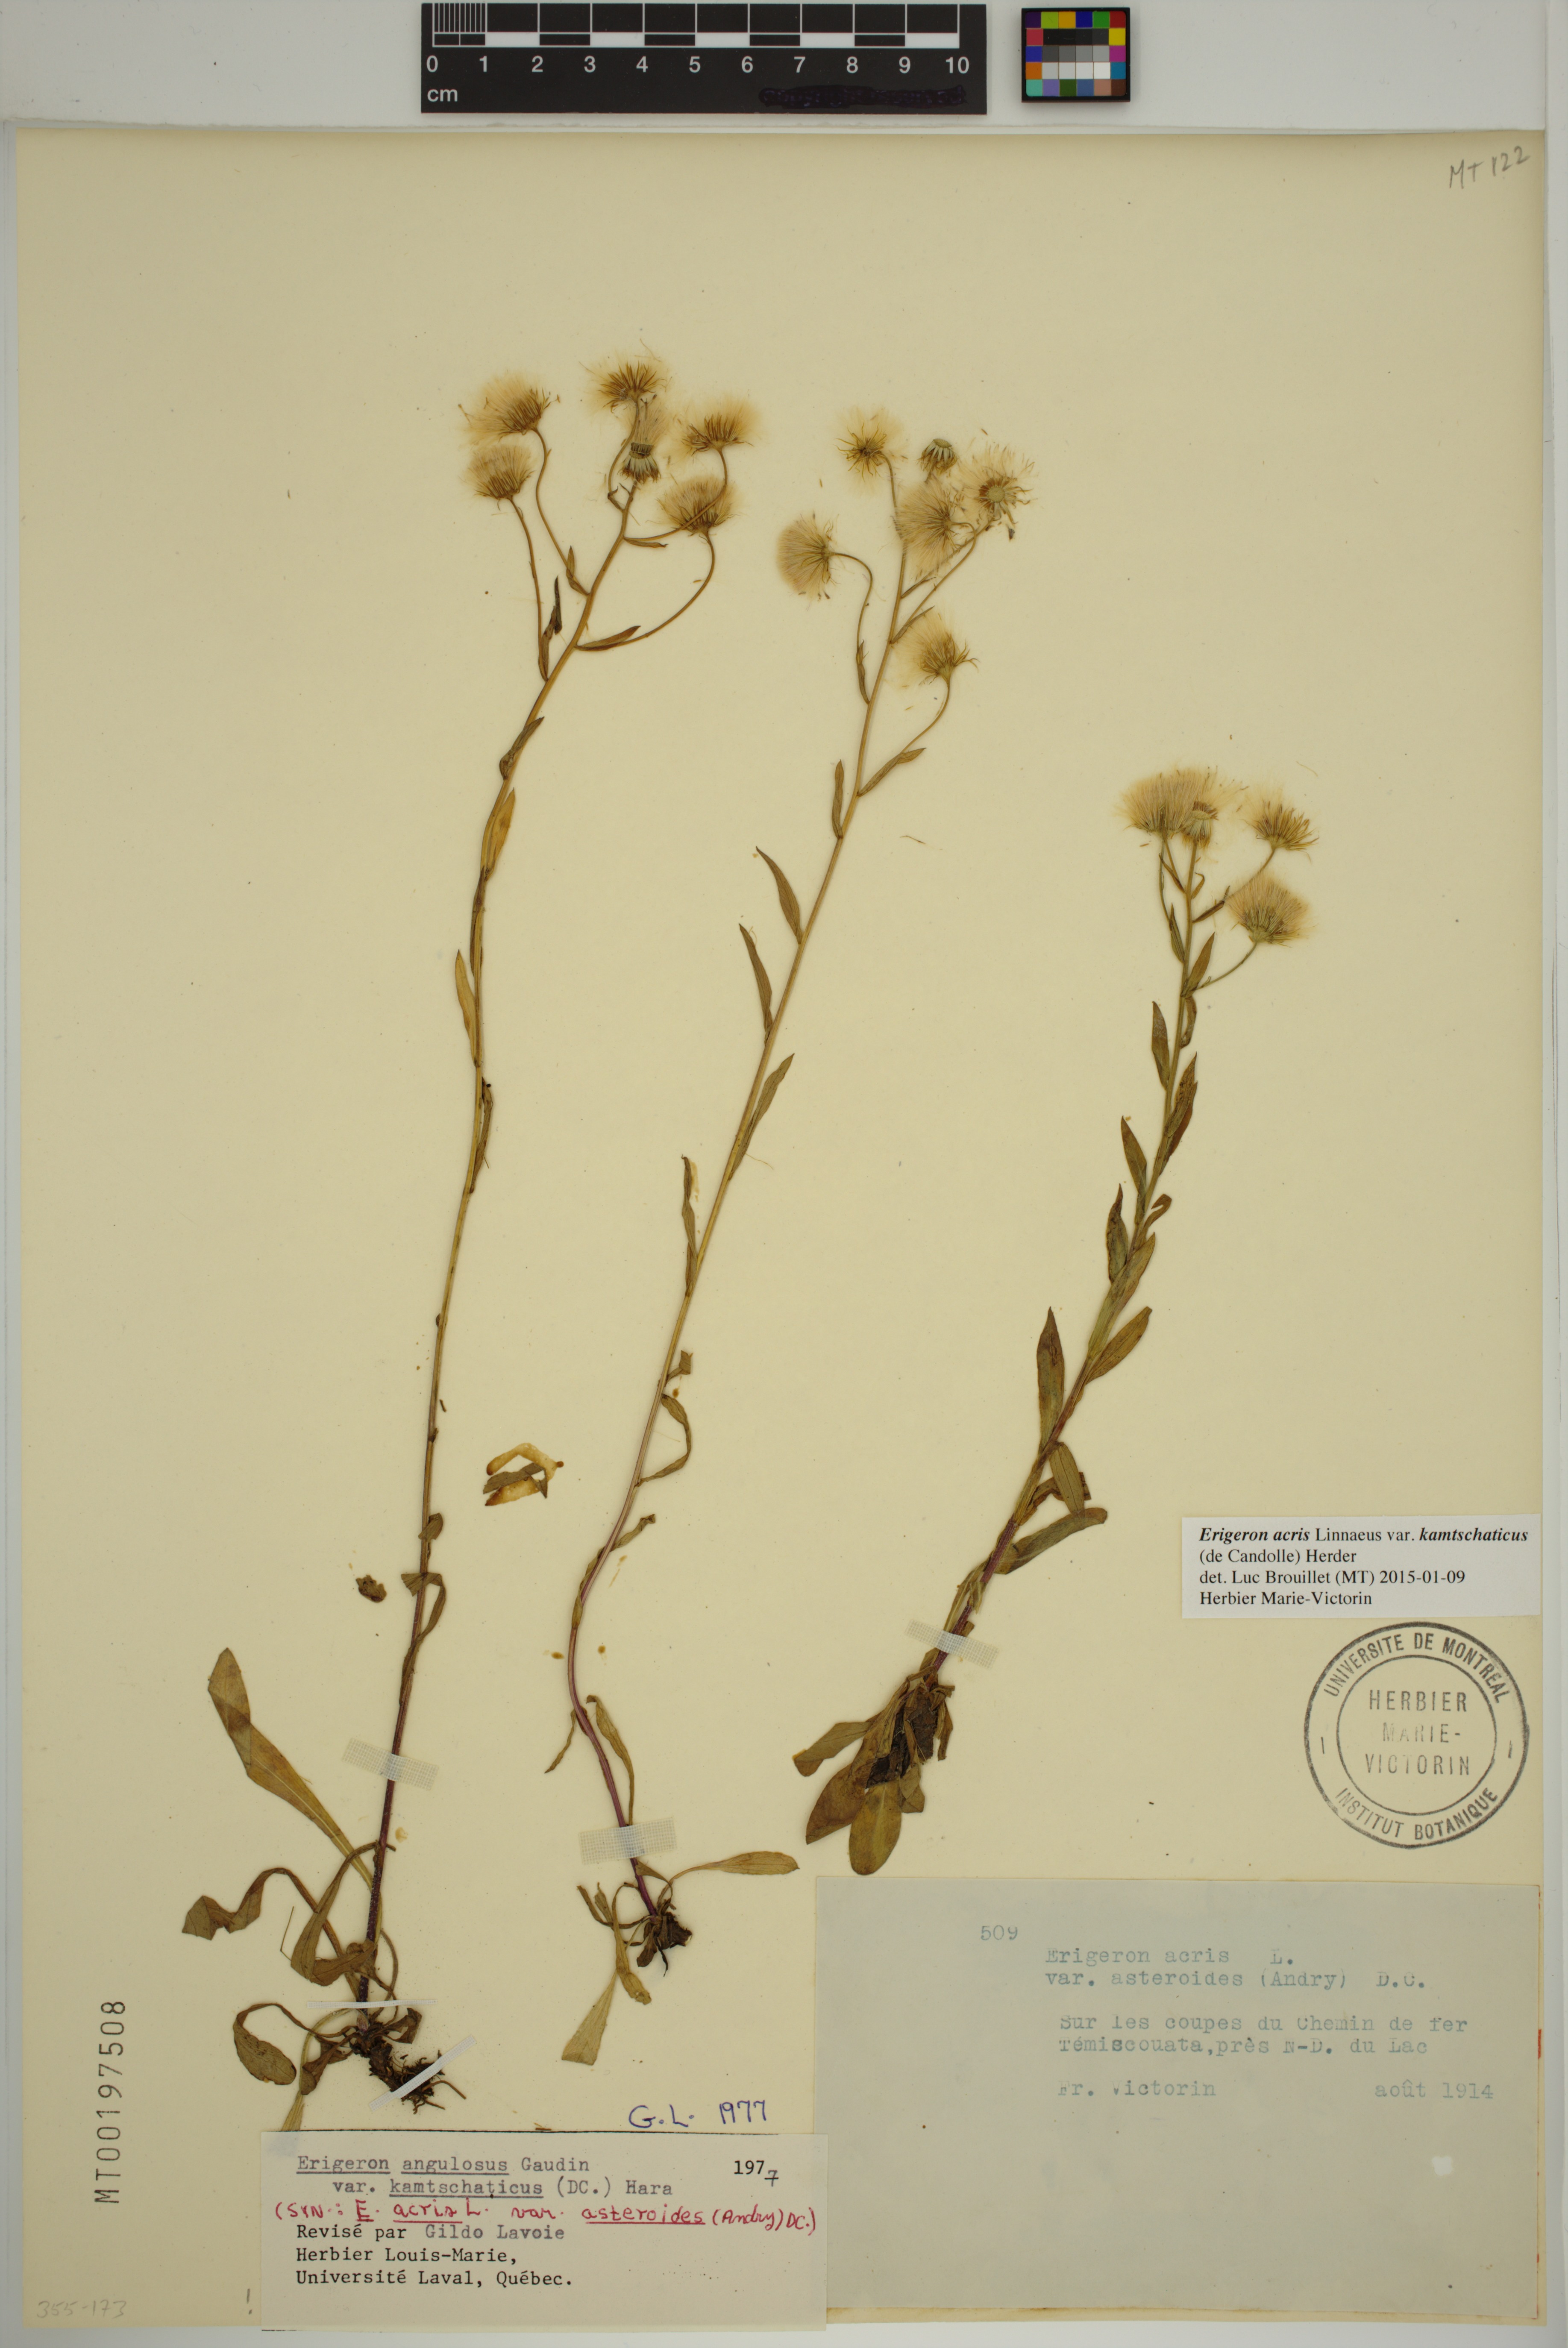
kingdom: Plantae
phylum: Tracheophyta
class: Magnoliopsida
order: Asterales
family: Asteraceae
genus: Erigeron
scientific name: Erigeron kamtschaticus
